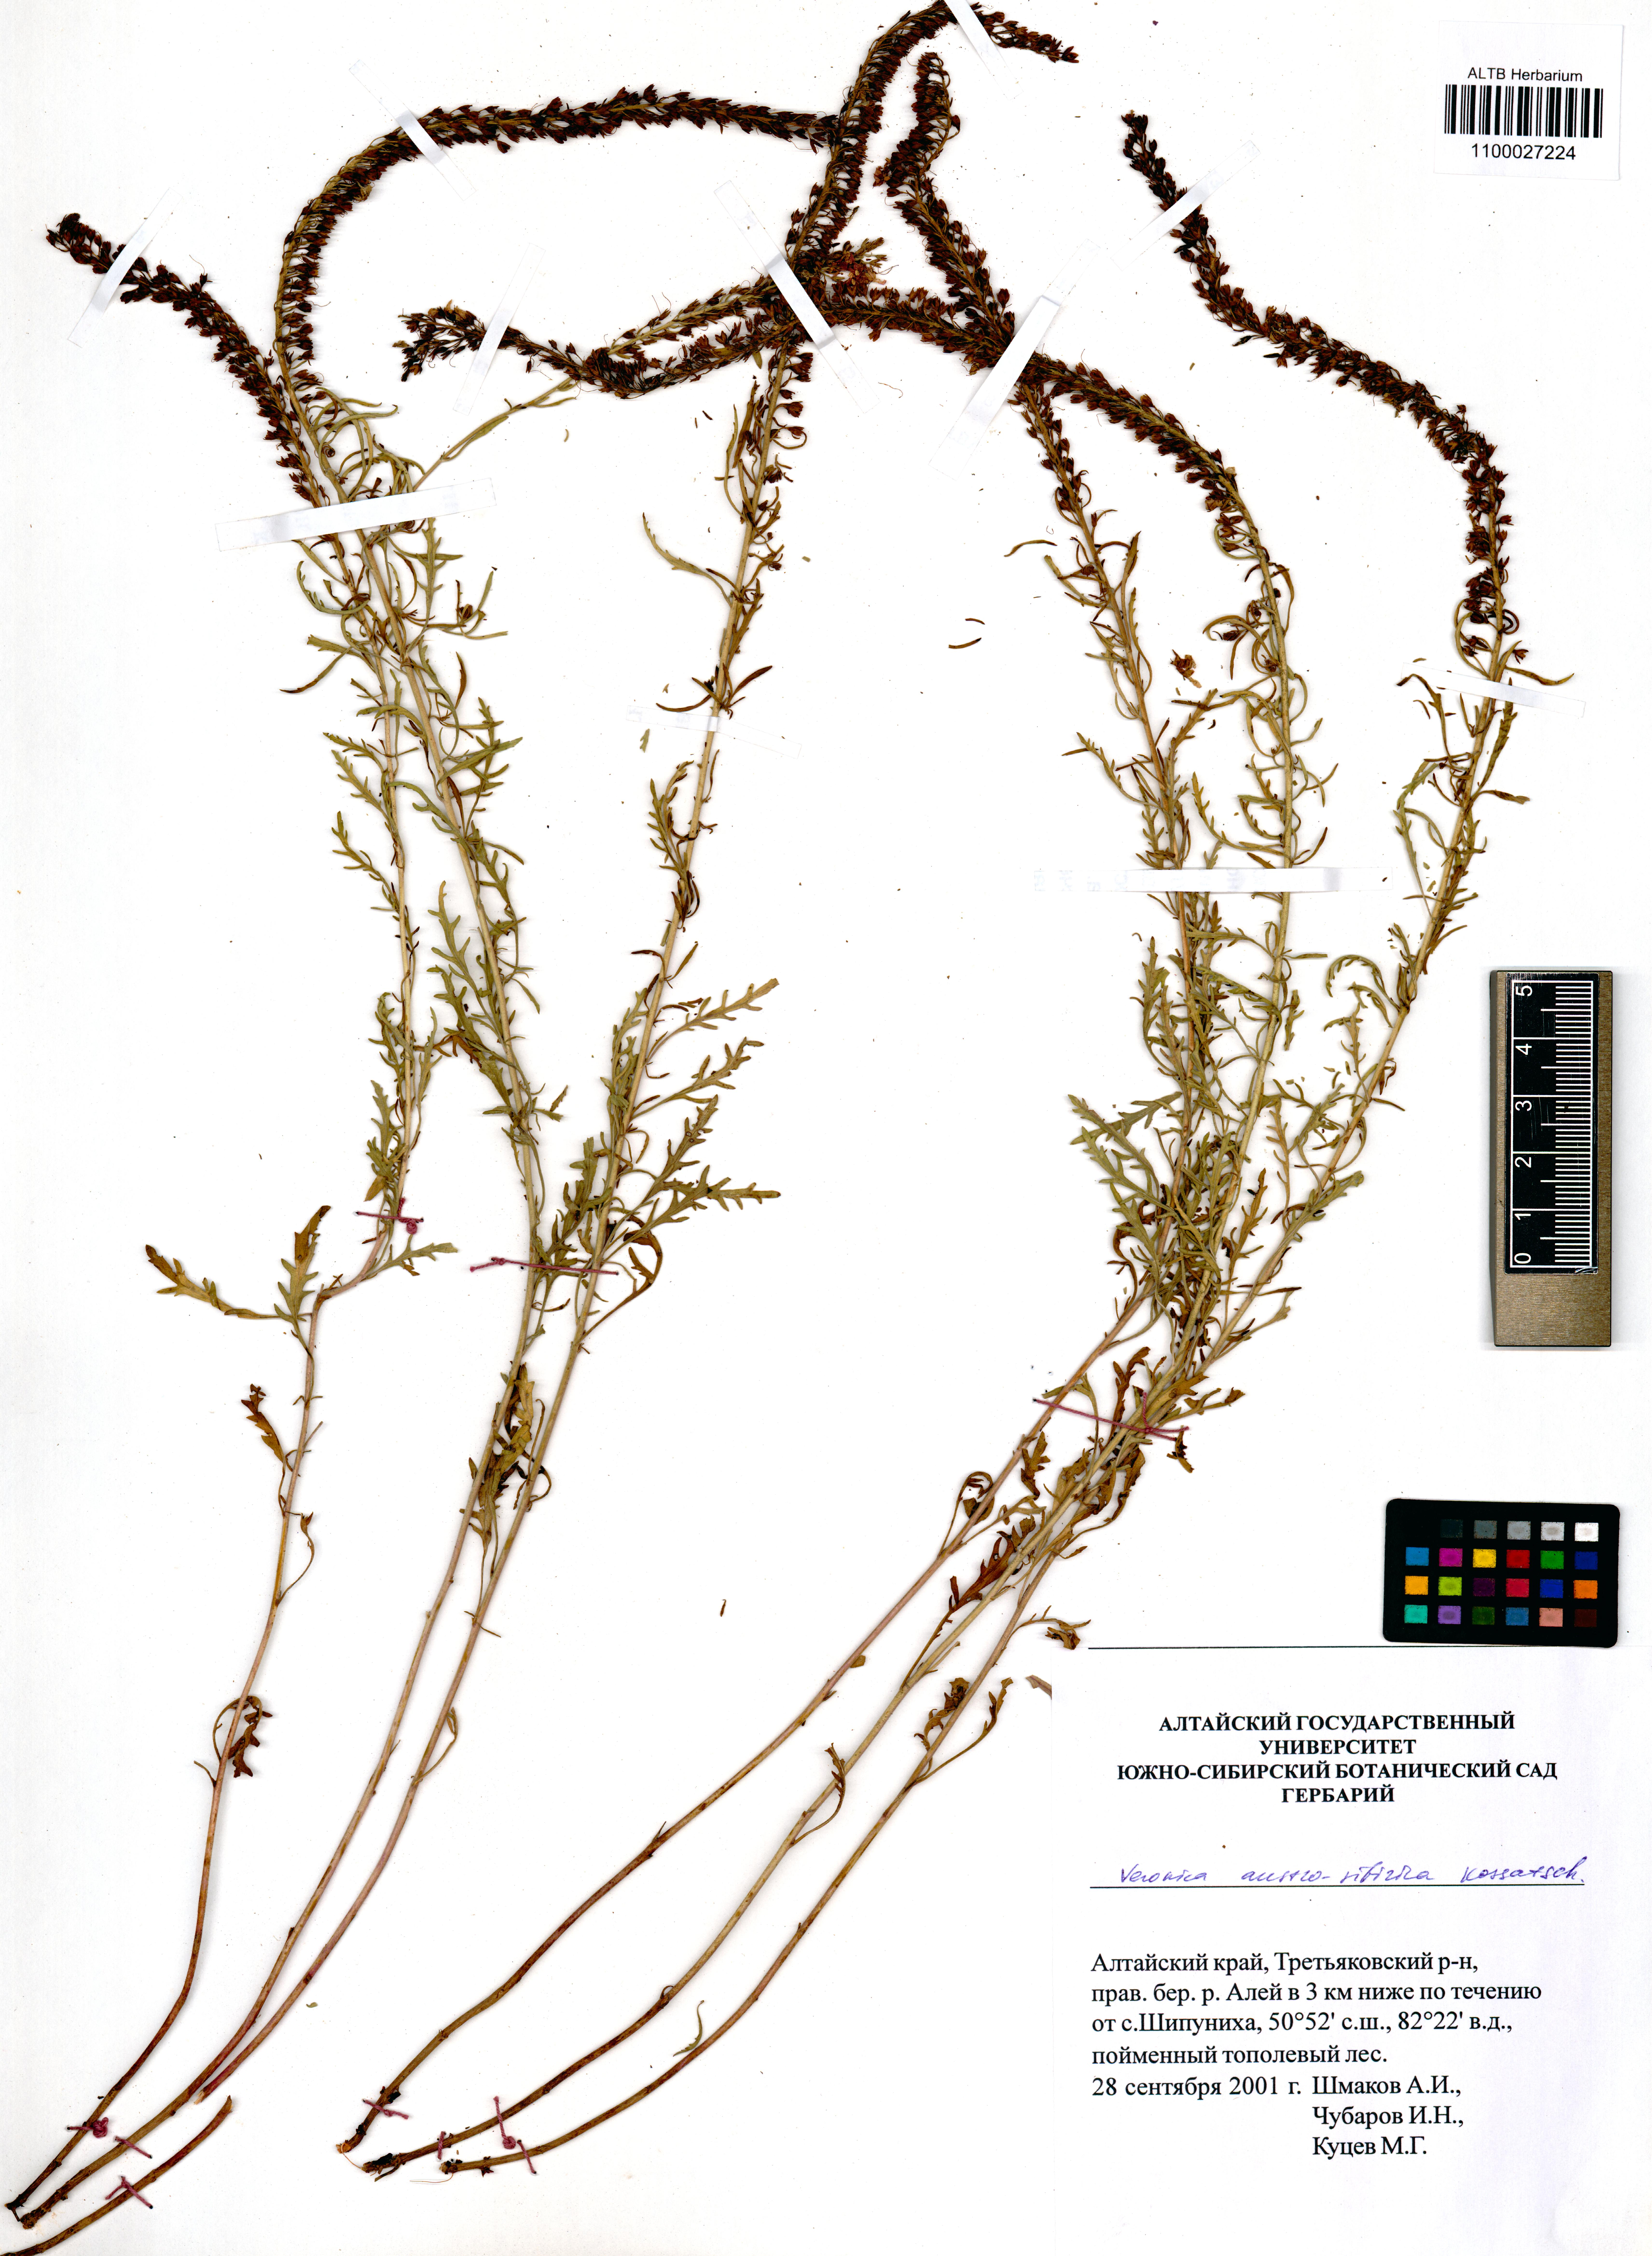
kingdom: Plantae
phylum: Tracheophyta
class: Magnoliopsida
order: Lamiales
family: Plantaginaceae
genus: Veronica
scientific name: Veronica altaica
